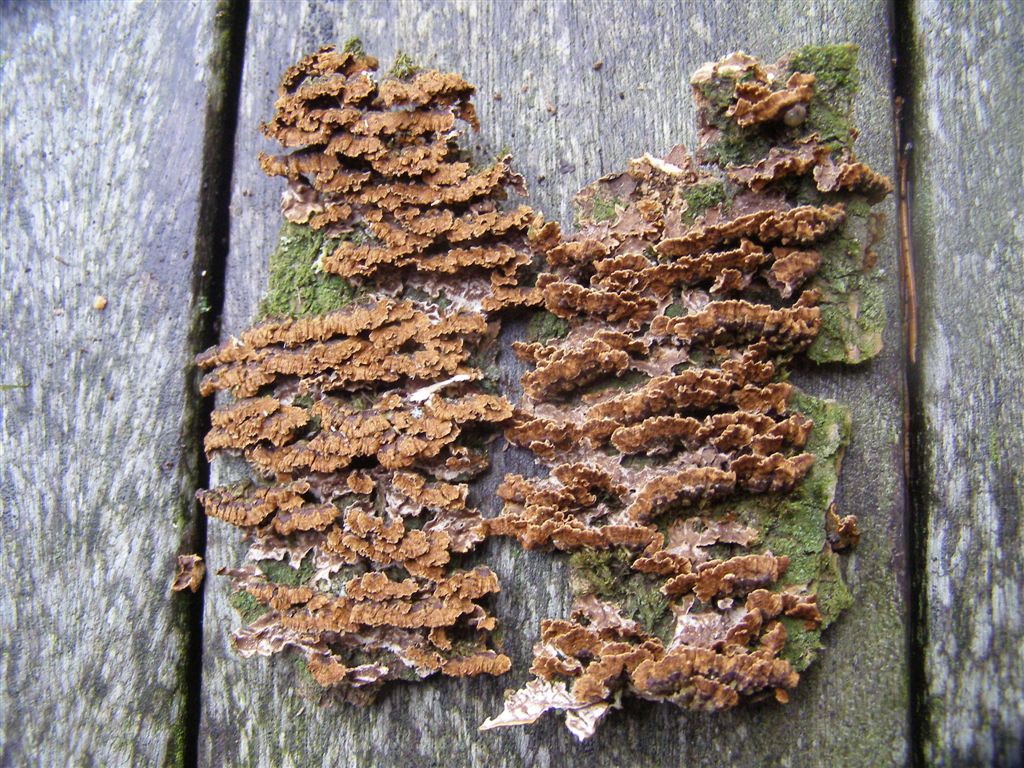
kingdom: Fungi
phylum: Basidiomycota
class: Agaricomycetes
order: Russulales
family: Stereaceae
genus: Stereum
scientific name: Stereum gausapatum
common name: tynd lædersvamp
